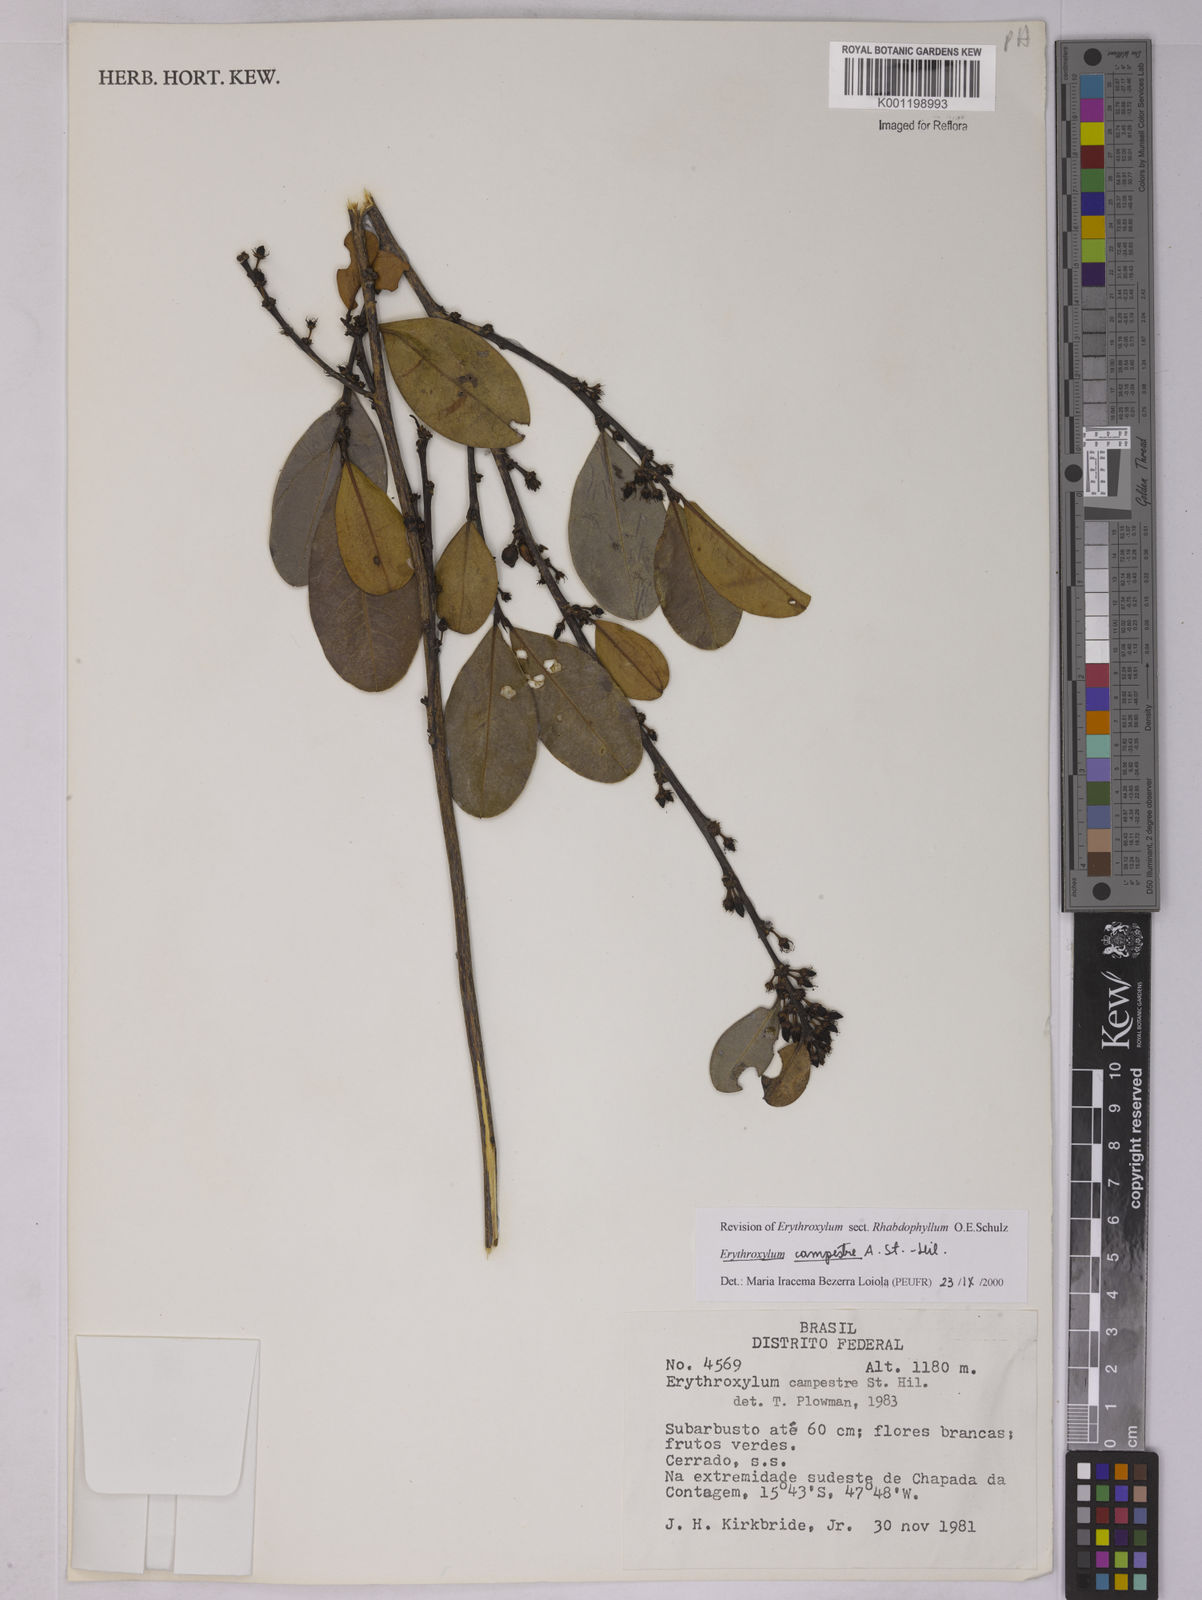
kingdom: Plantae
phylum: Tracheophyta
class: Magnoliopsida
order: Malpighiales
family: Erythroxylaceae
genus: Erythroxylum
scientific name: Erythroxylum campestre
